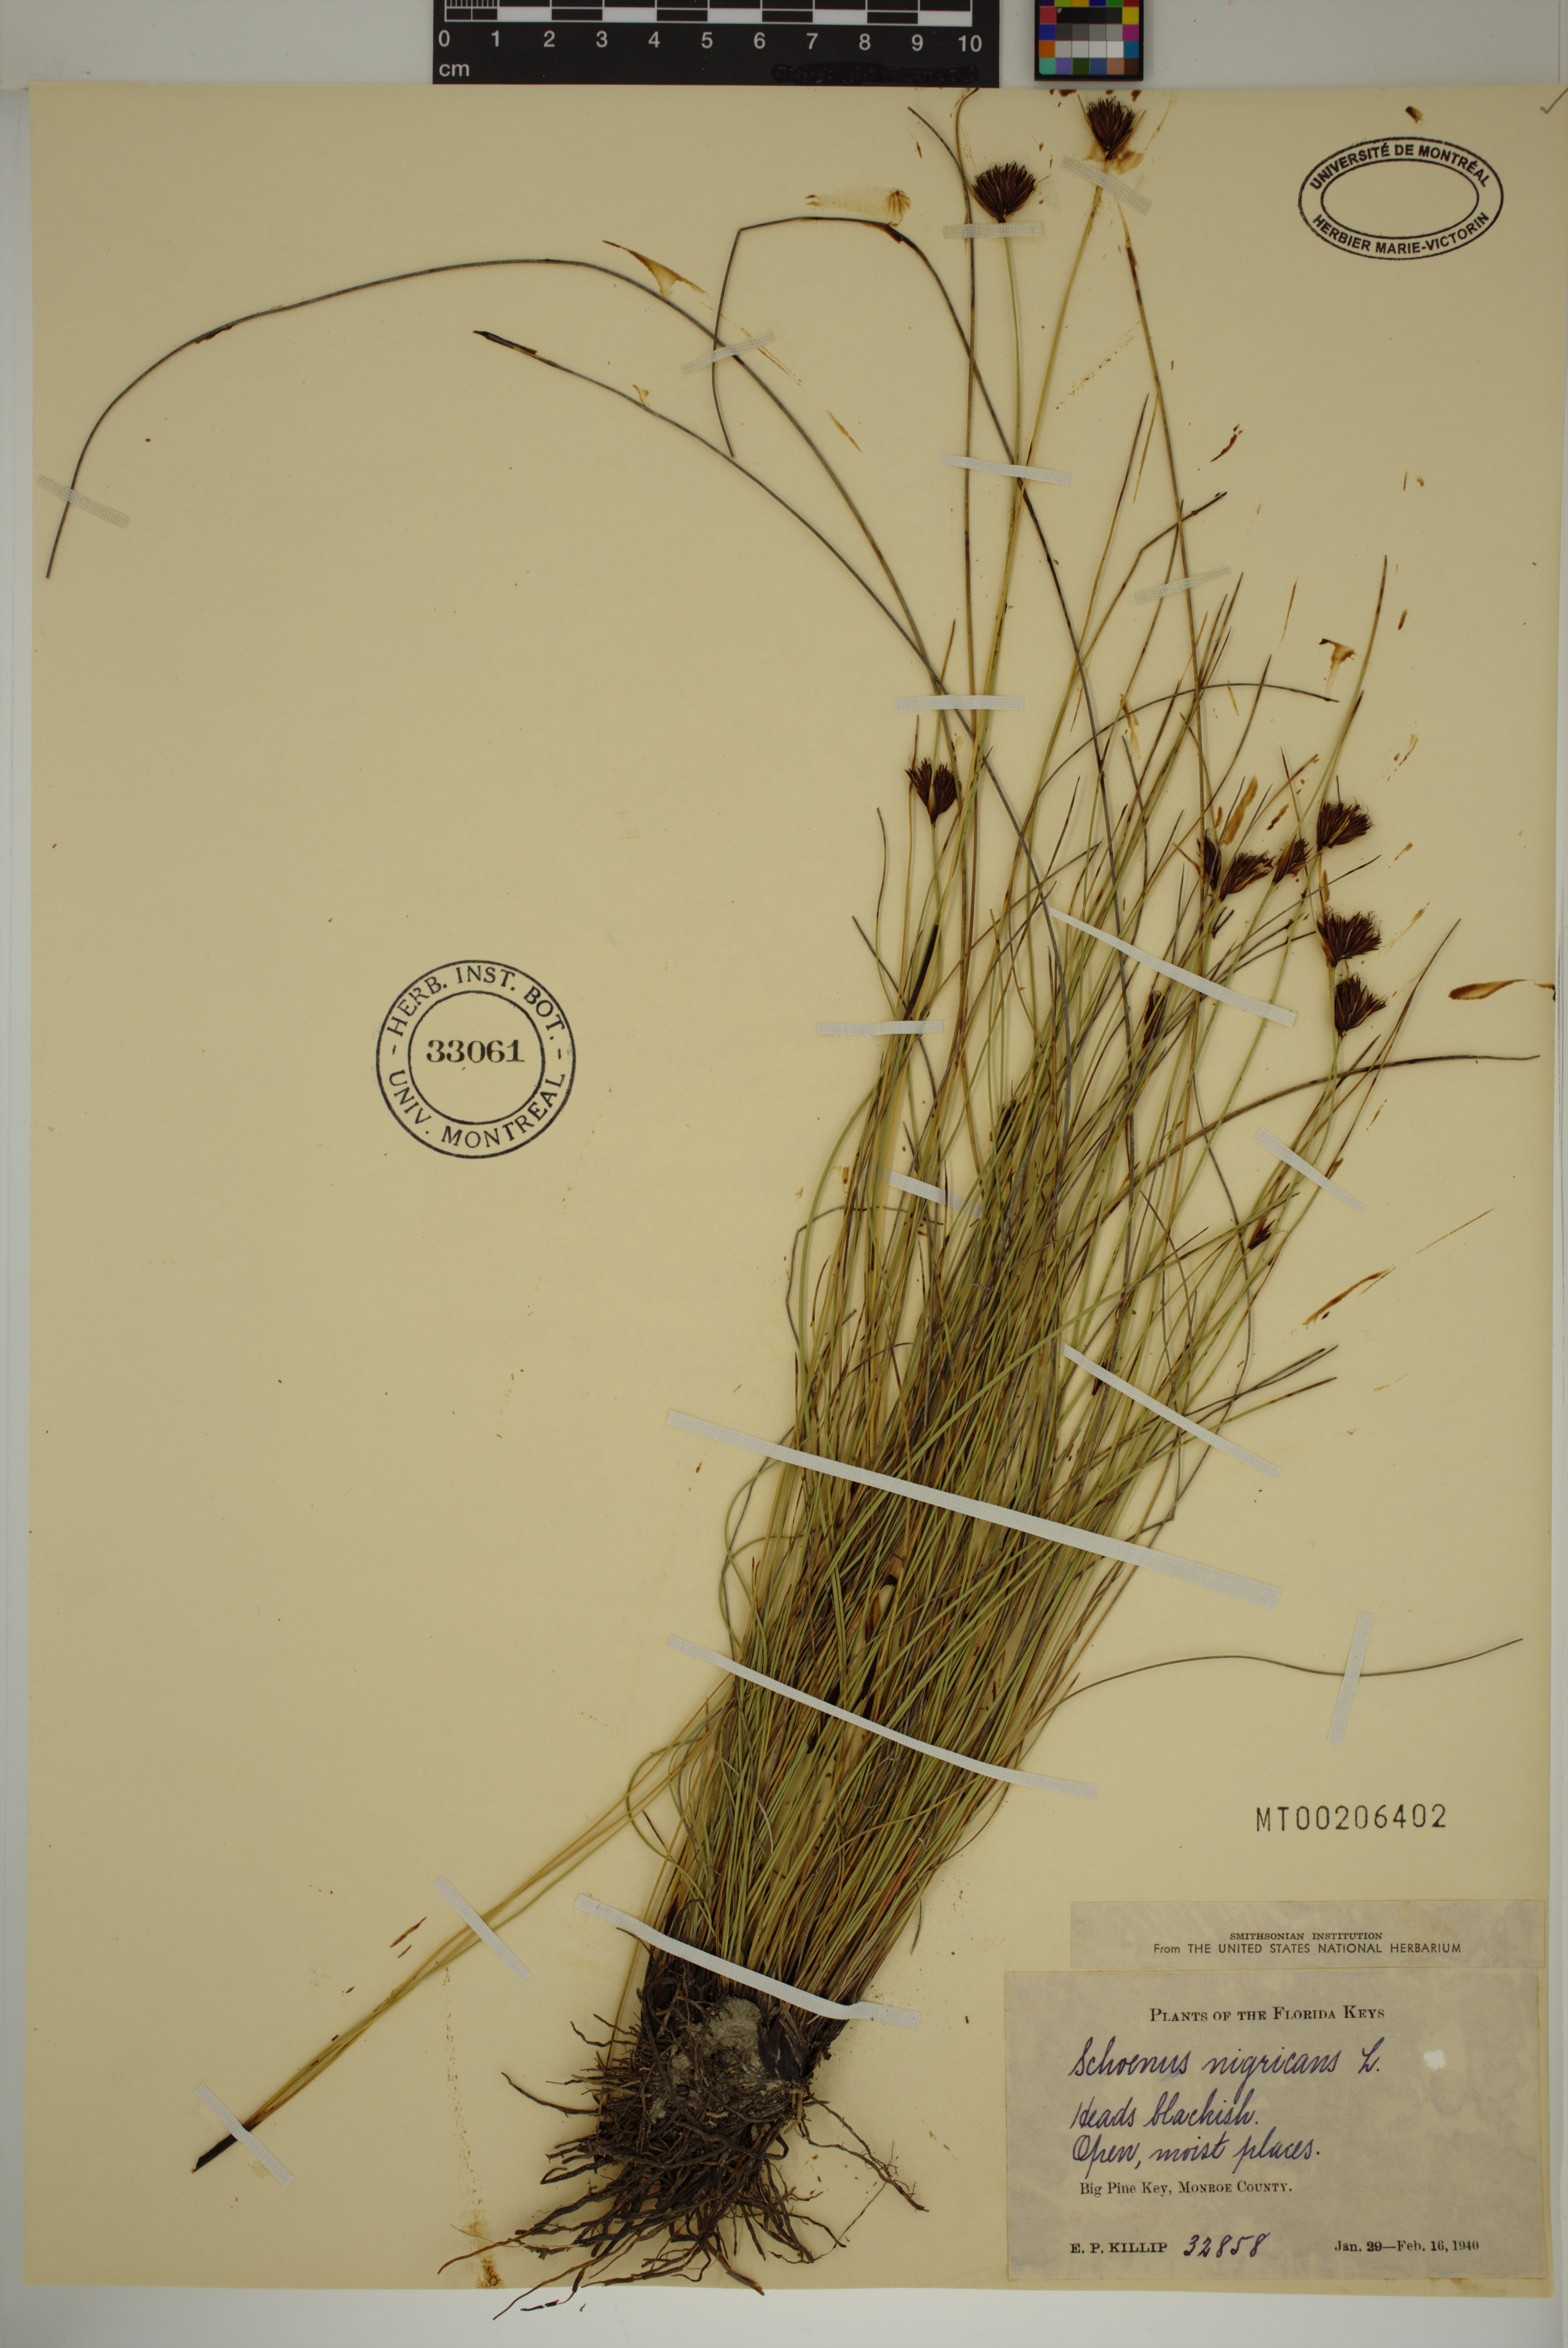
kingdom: Plantae
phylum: Tracheophyta
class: Liliopsida
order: Poales
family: Cyperaceae
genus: Schoenus
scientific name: Schoenus nigricans
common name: Black bog-rush
